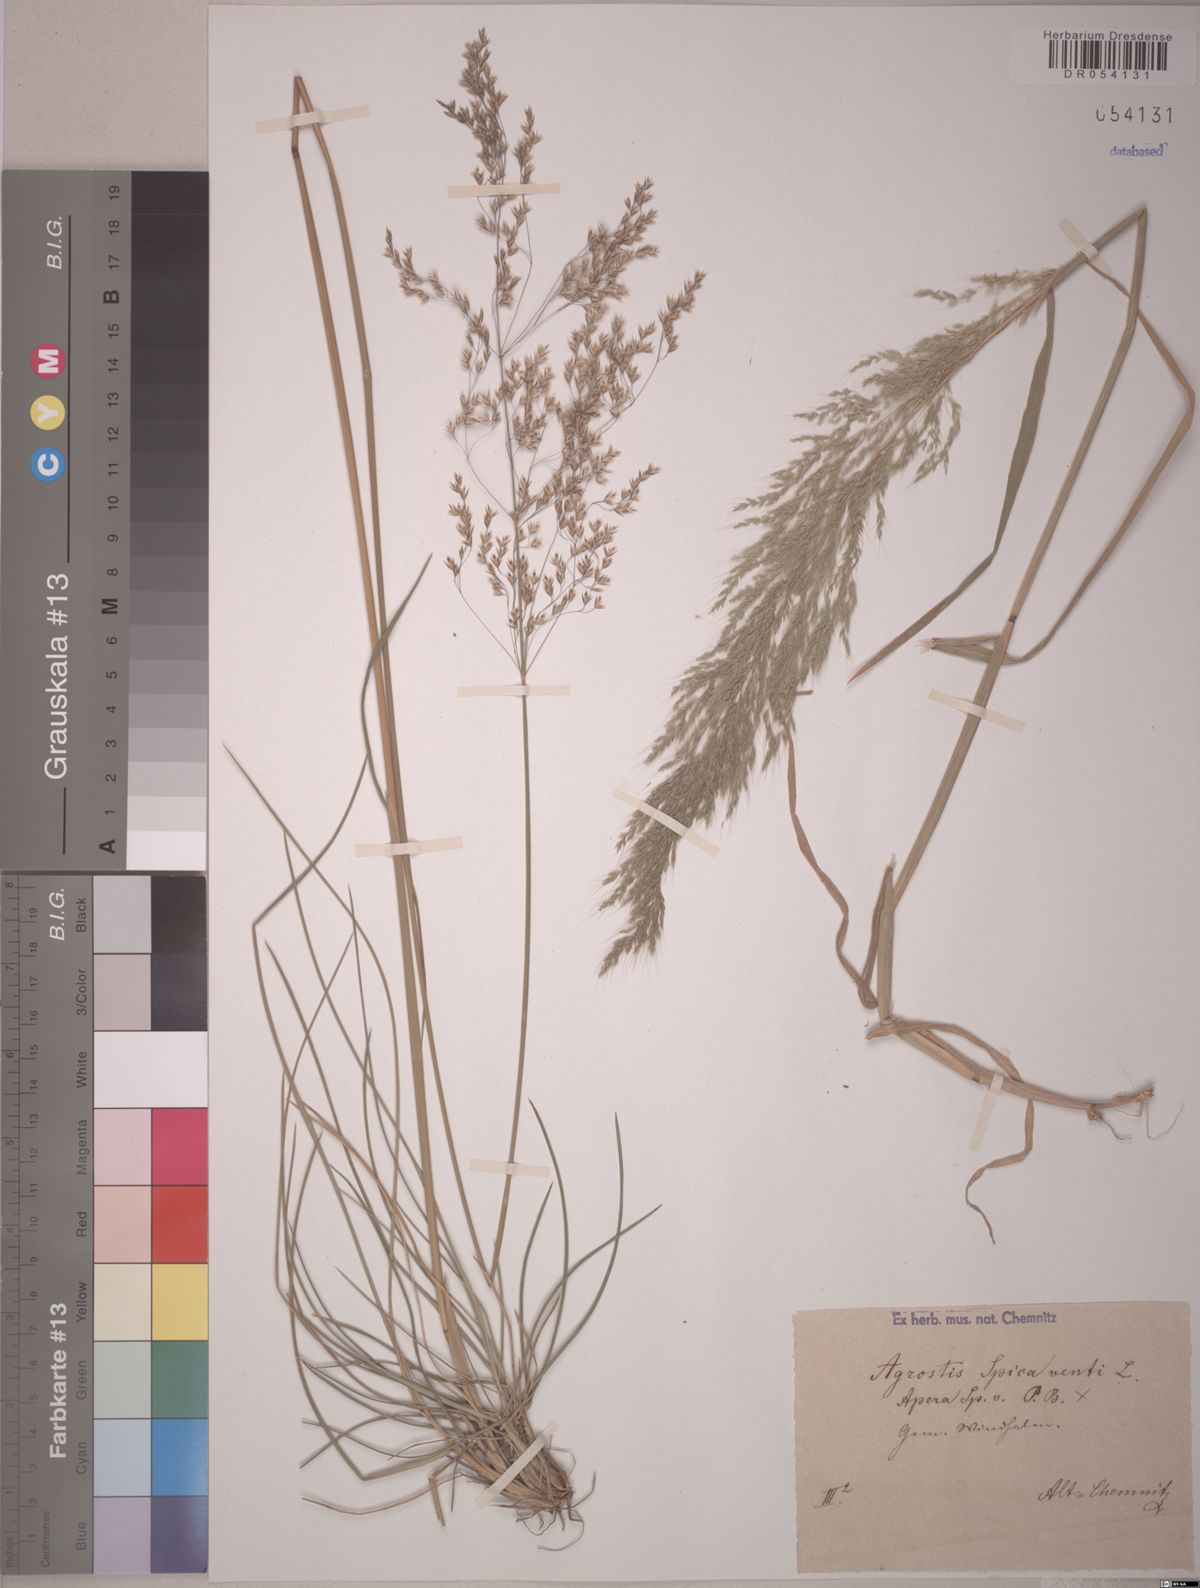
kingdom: Plantae
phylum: Tracheophyta
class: Liliopsida
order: Poales
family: Poaceae
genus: Apera
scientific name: Apera spica-venti
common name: Loose silky-bent
